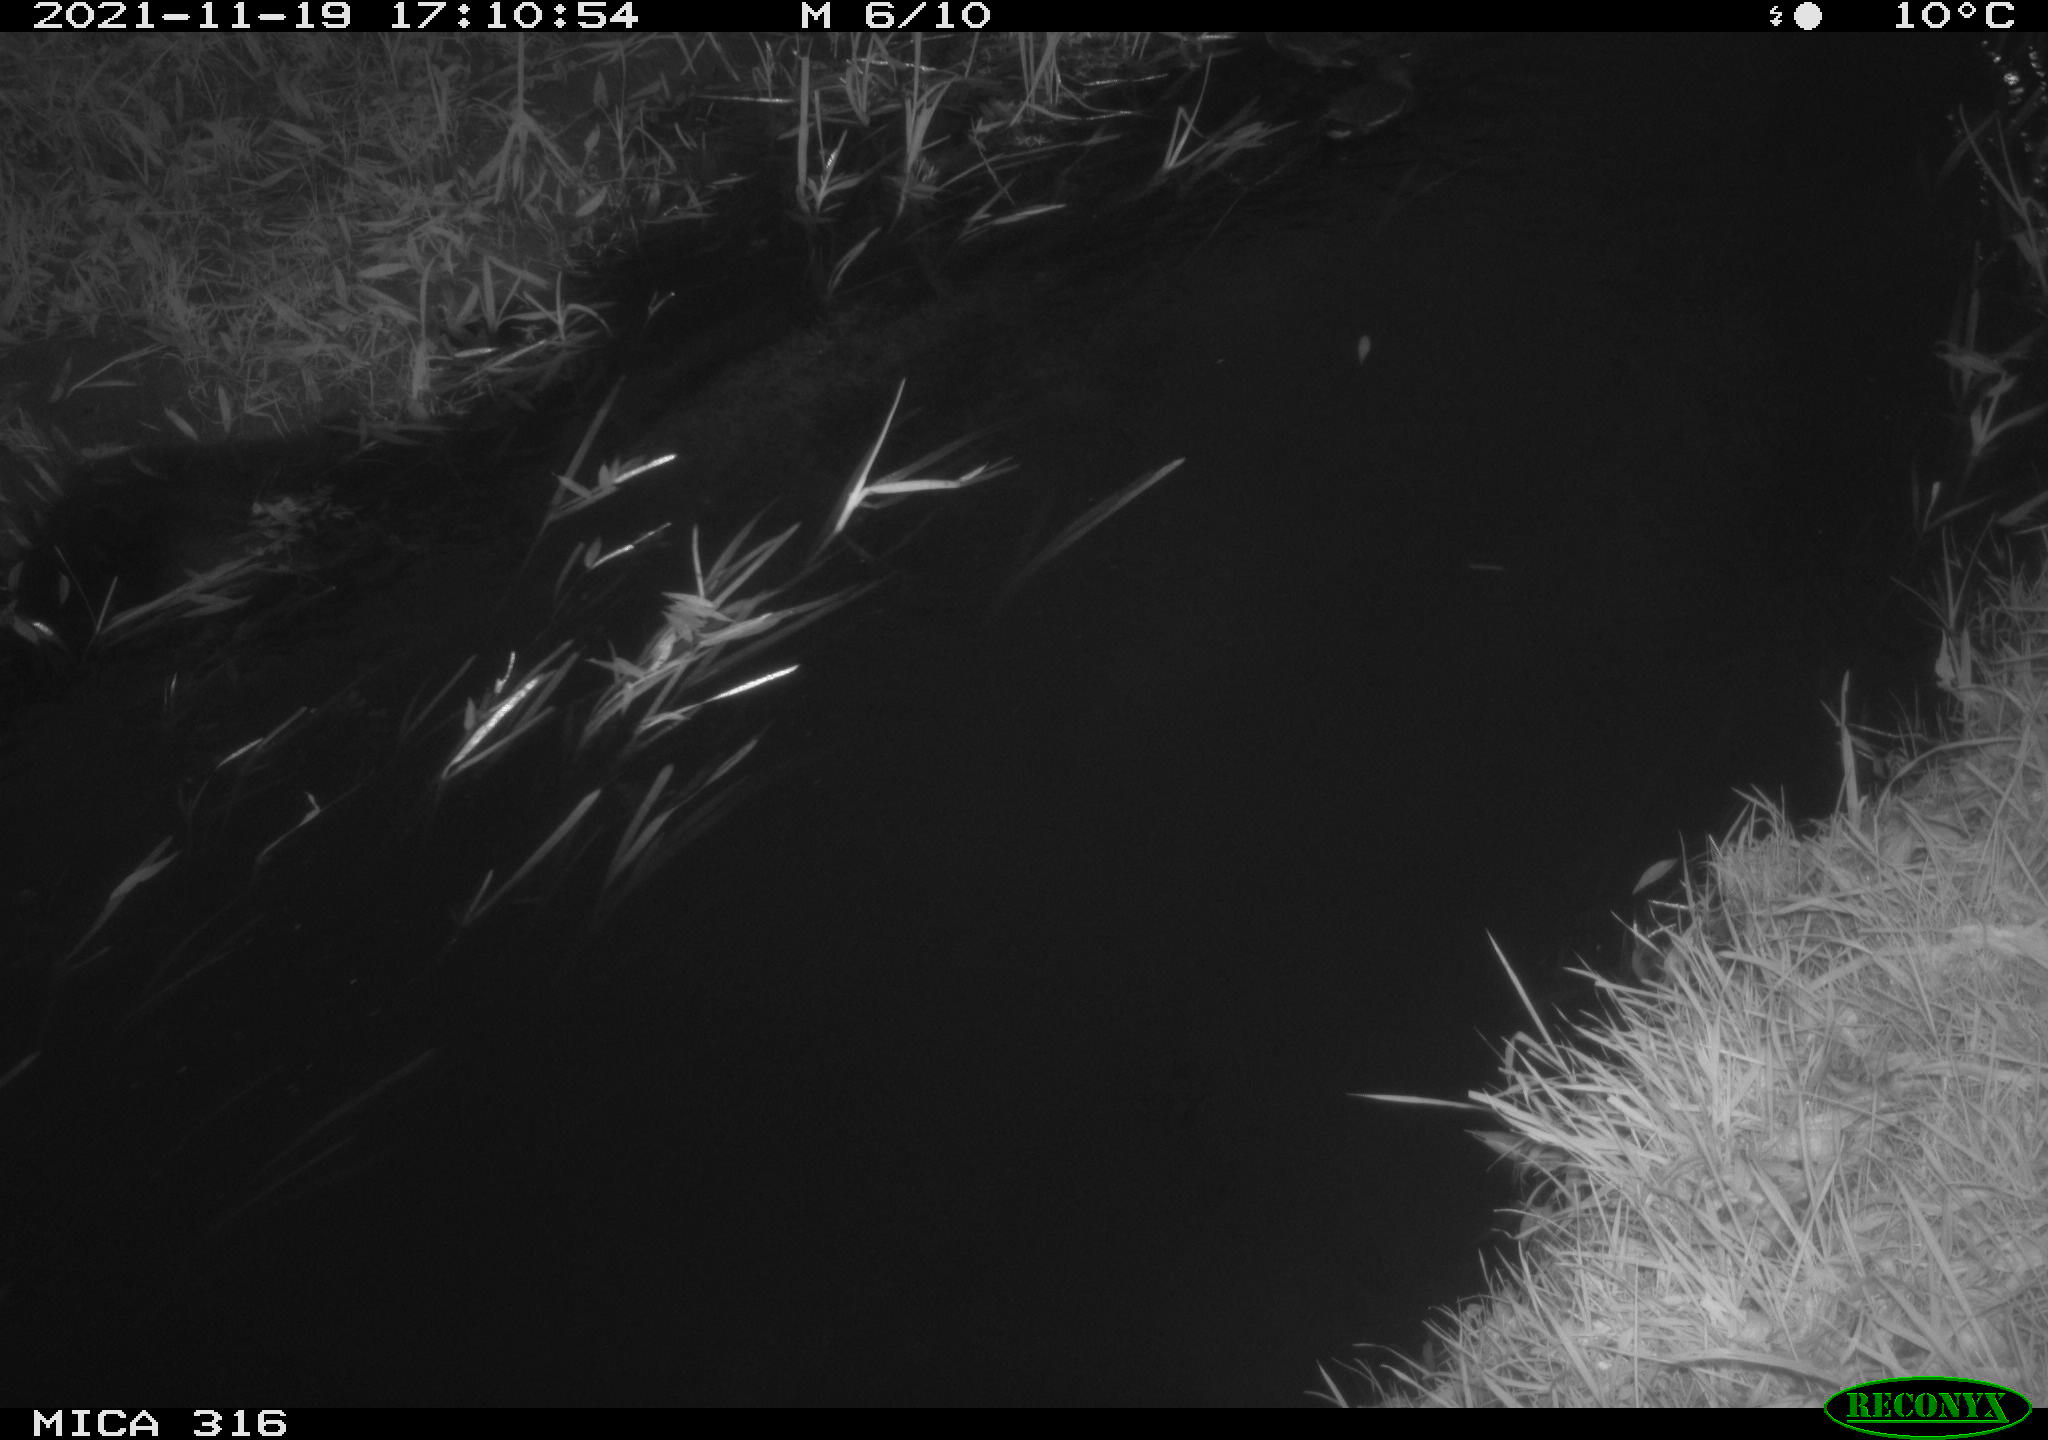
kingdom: Animalia
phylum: Chordata
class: Aves
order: Gruiformes
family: Rallidae
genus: Gallinula
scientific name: Gallinula chloropus
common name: Common moorhen
